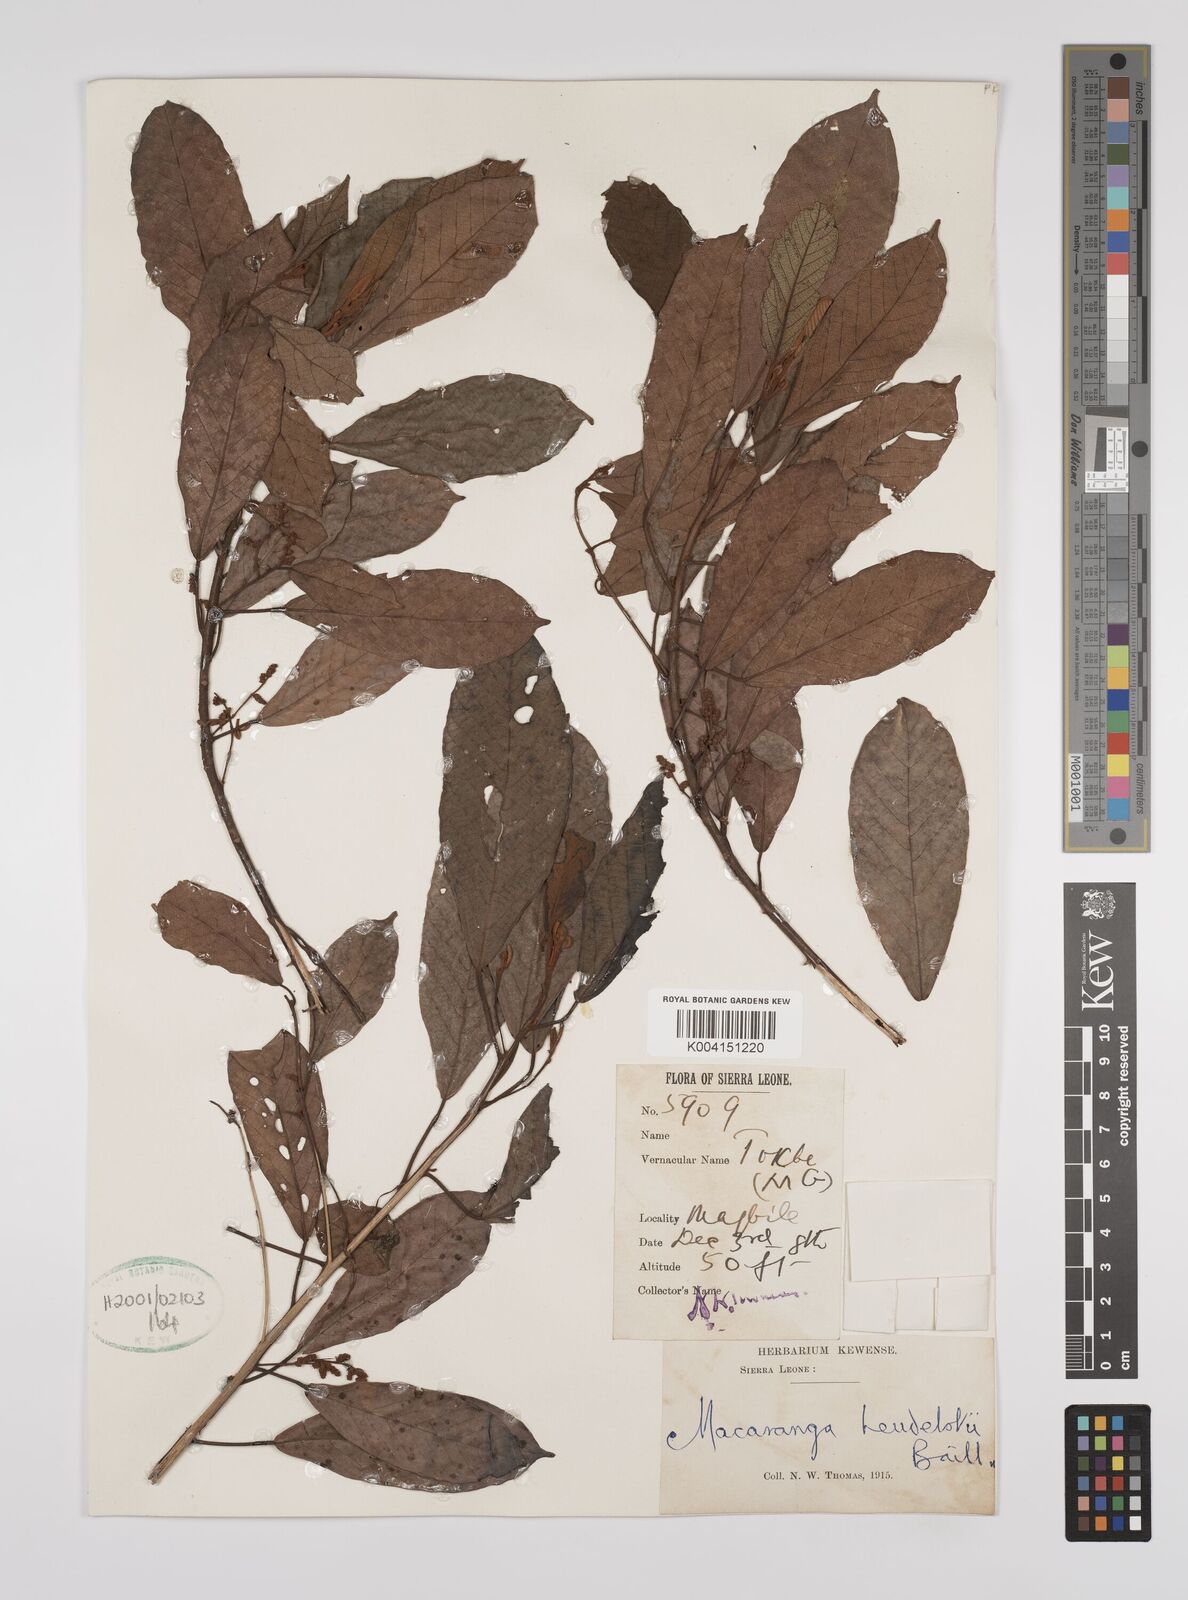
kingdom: Plantae
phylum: Tracheophyta
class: Magnoliopsida
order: Malpighiales
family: Euphorbiaceae
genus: Macaranga
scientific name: Macaranga heudelotii
